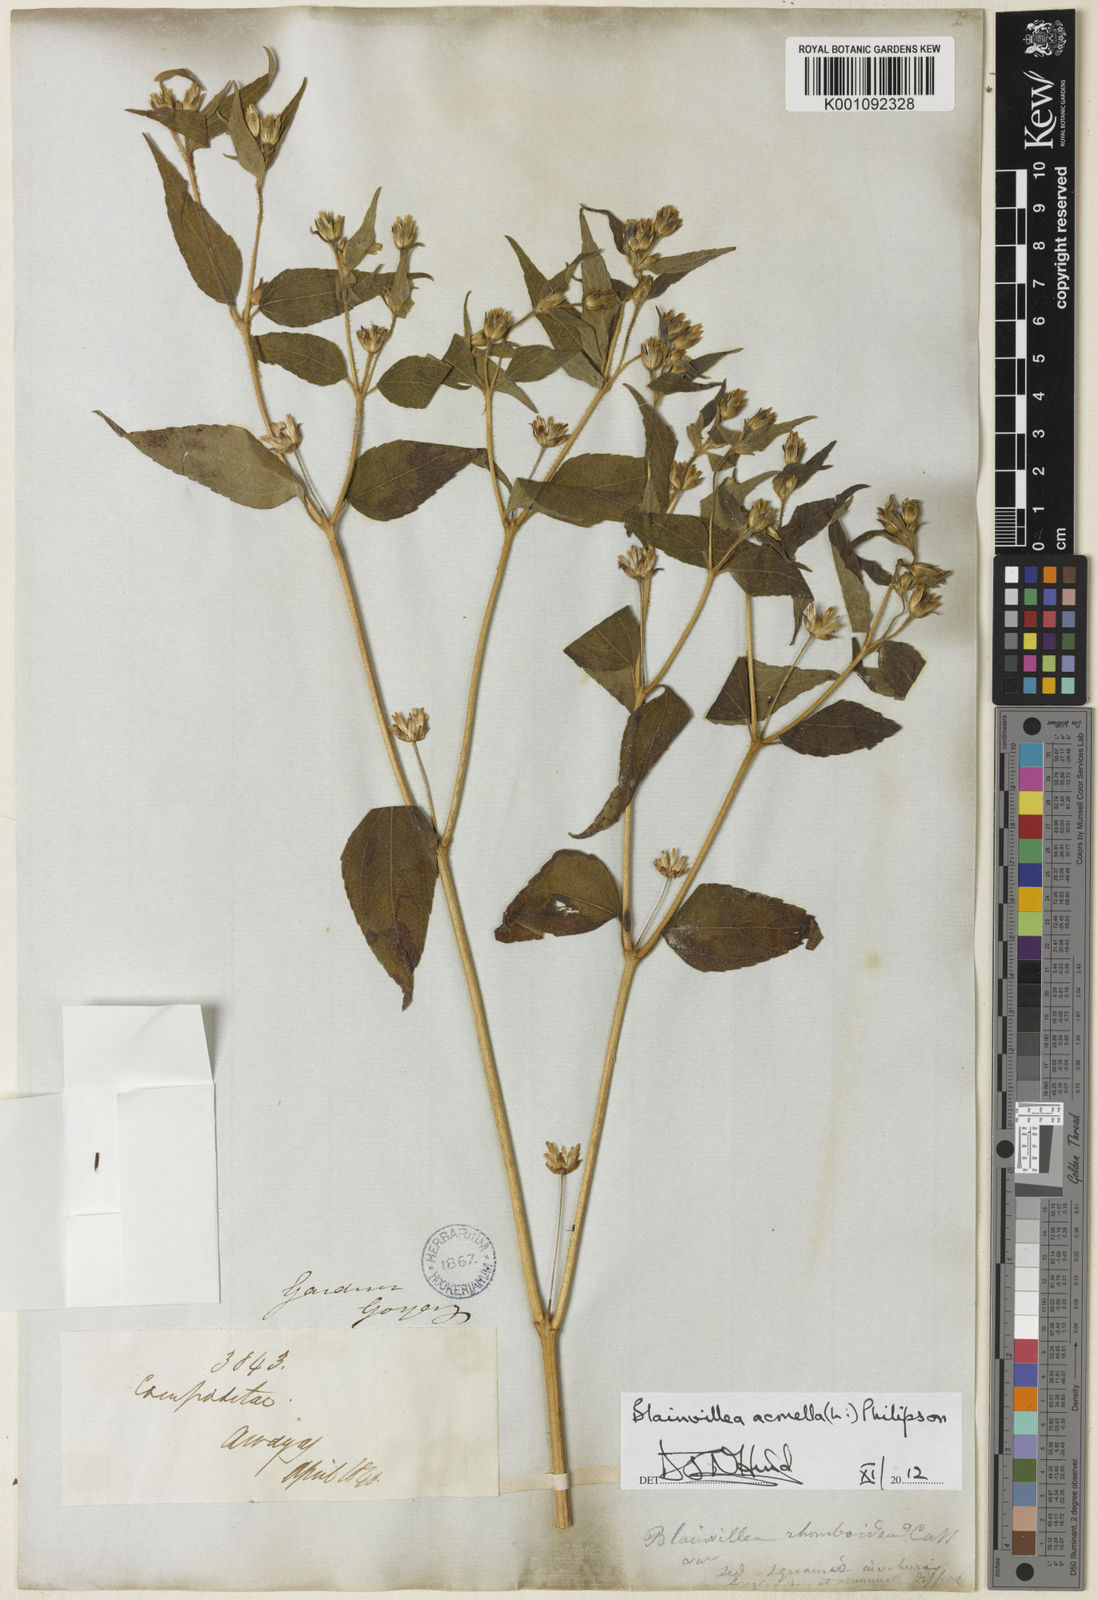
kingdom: Plantae
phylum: Tracheophyta
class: Magnoliopsida
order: Asterales
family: Asteraceae
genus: Blainvillea
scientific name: Blainvillea acmella
